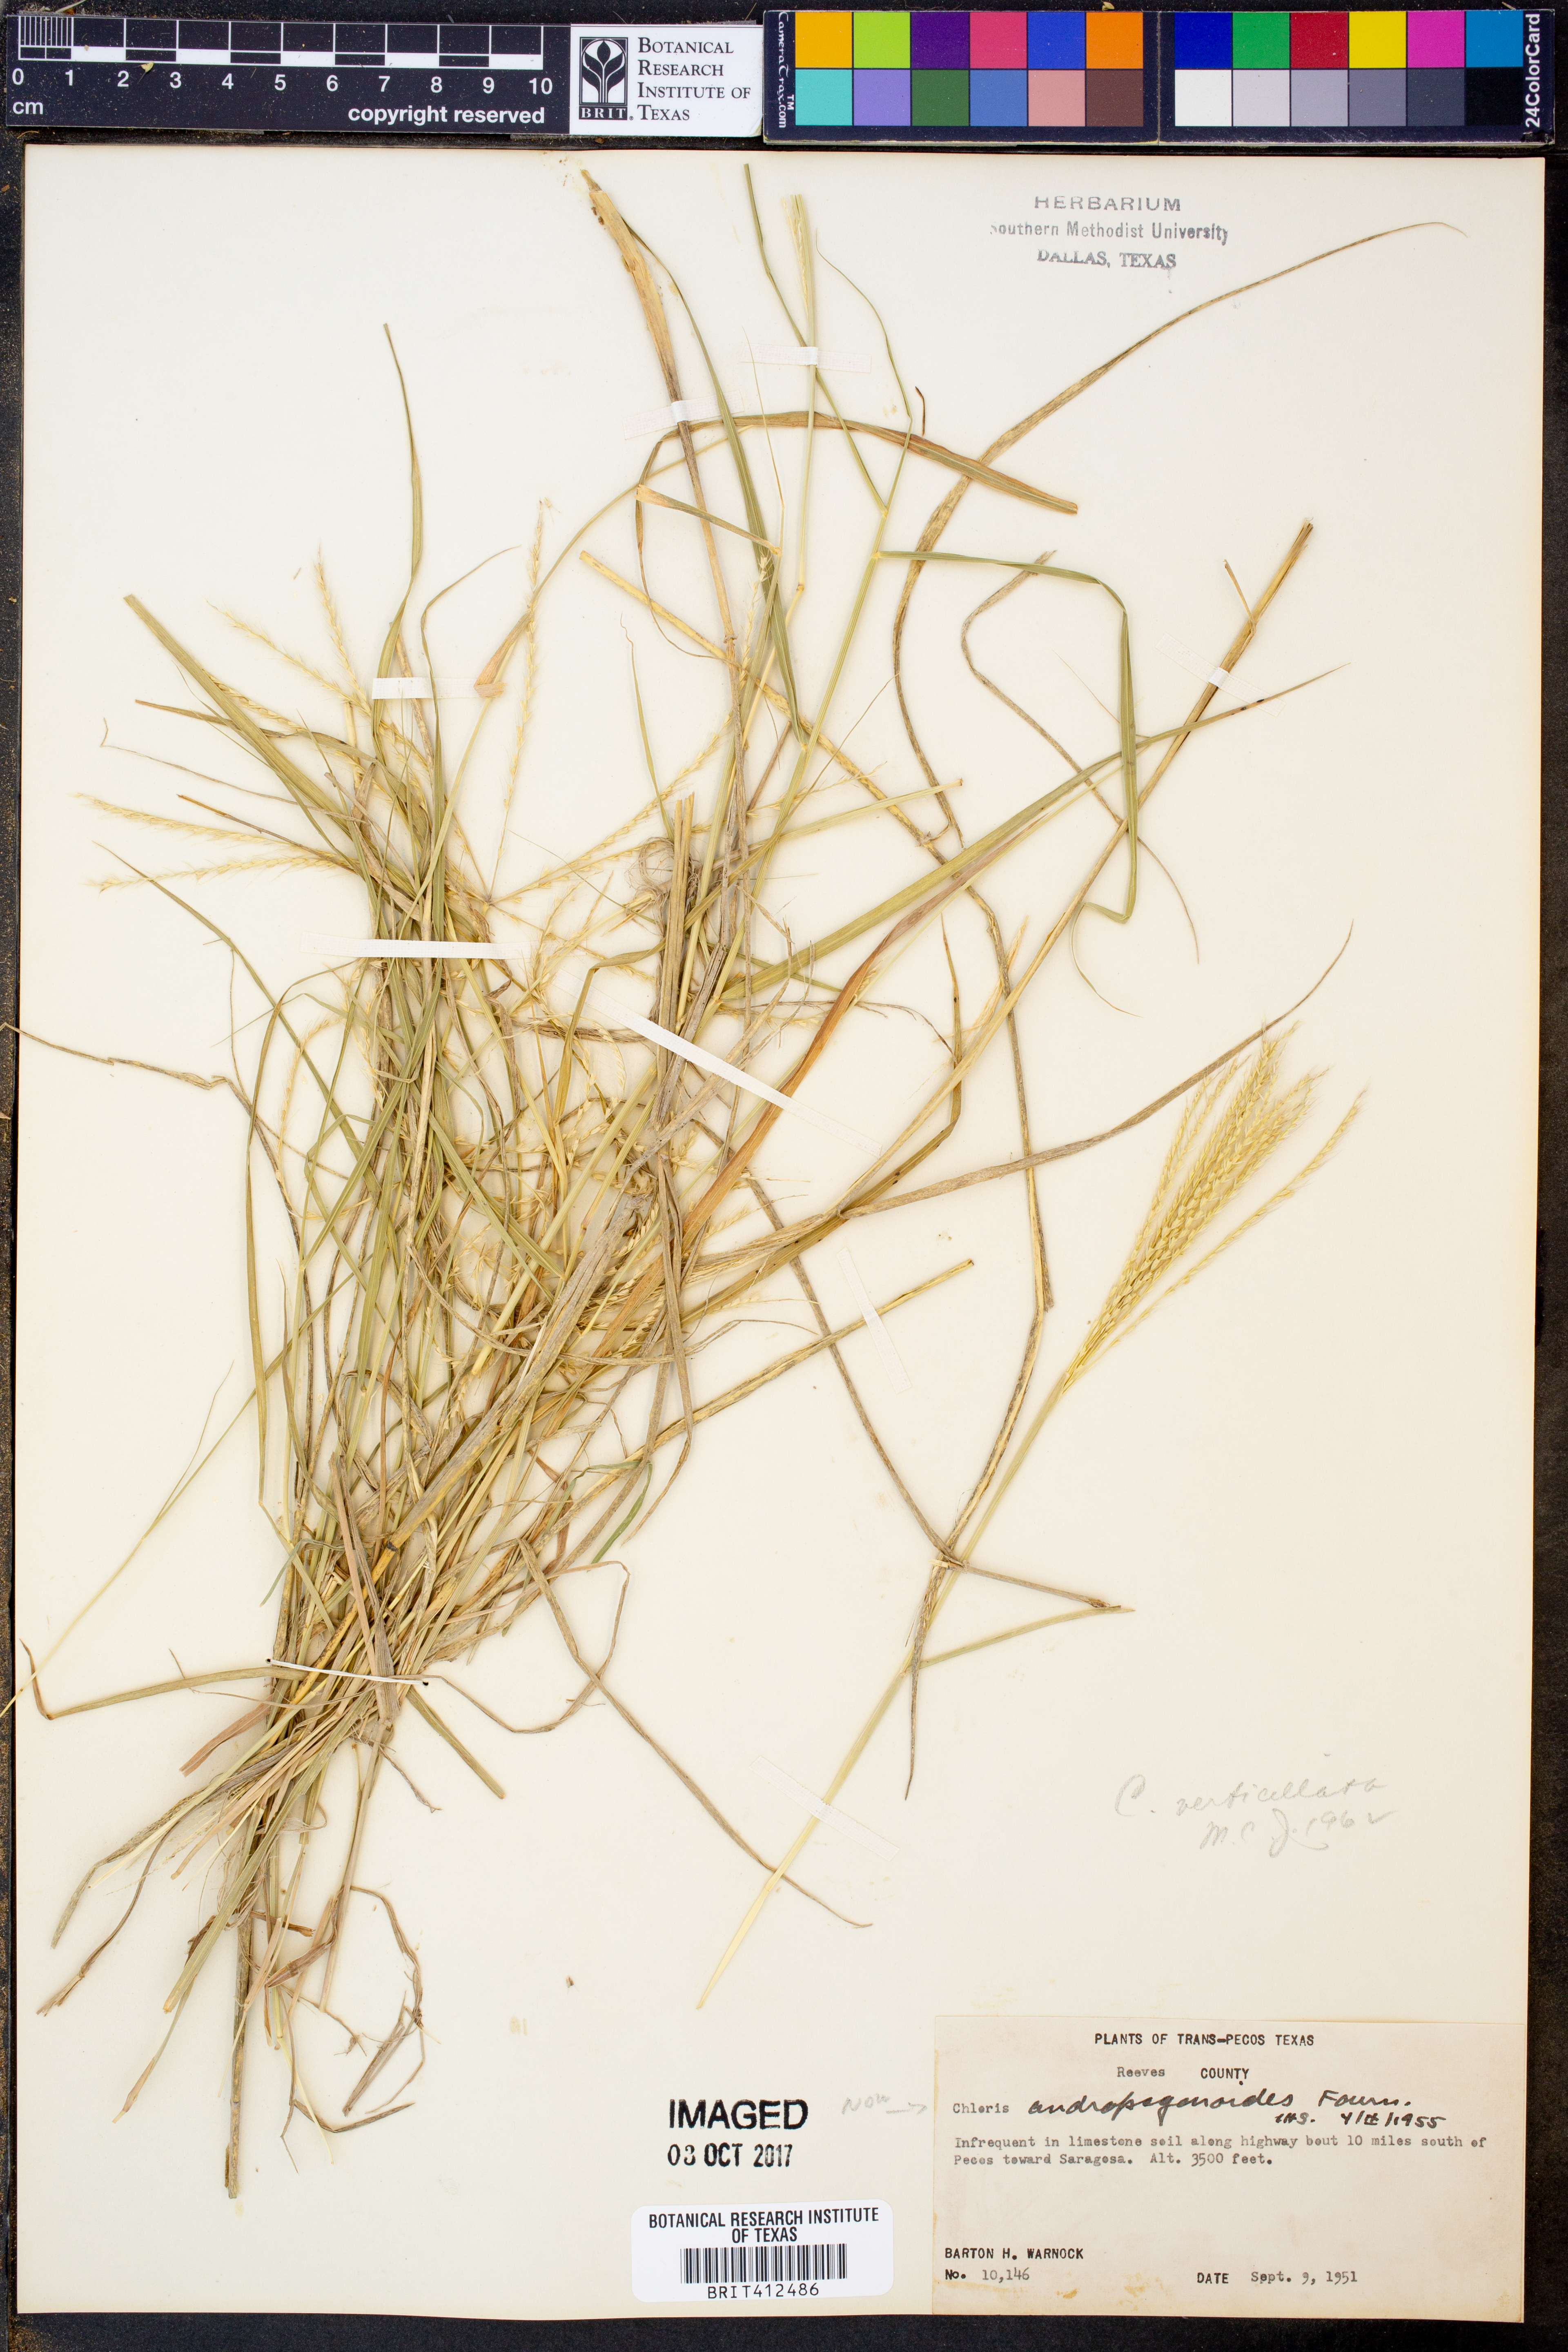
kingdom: Plantae
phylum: Tracheophyta
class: Liliopsida
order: Poales
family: Poaceae
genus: Chloris
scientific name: Chloris verticillata
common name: Tumble windmill grass
